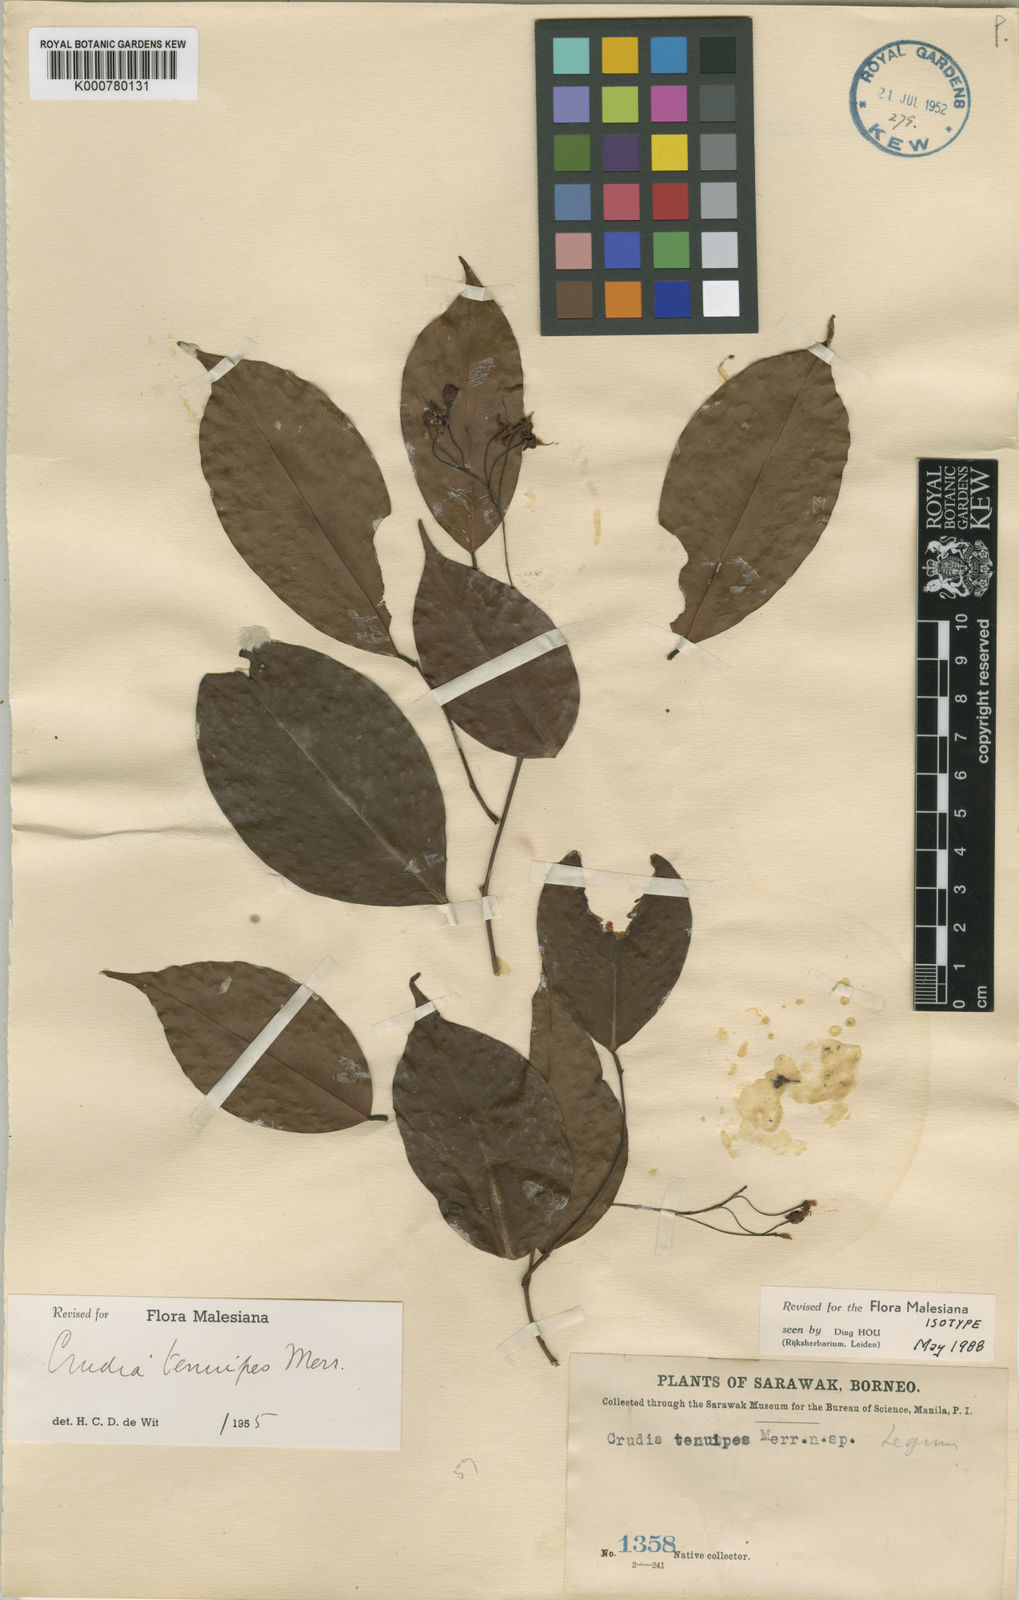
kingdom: Plantae
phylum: Tracheophyta
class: Magnoliopsida
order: Fabales
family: Fabaceae
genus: Crudia
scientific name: Crudia tenuipes
